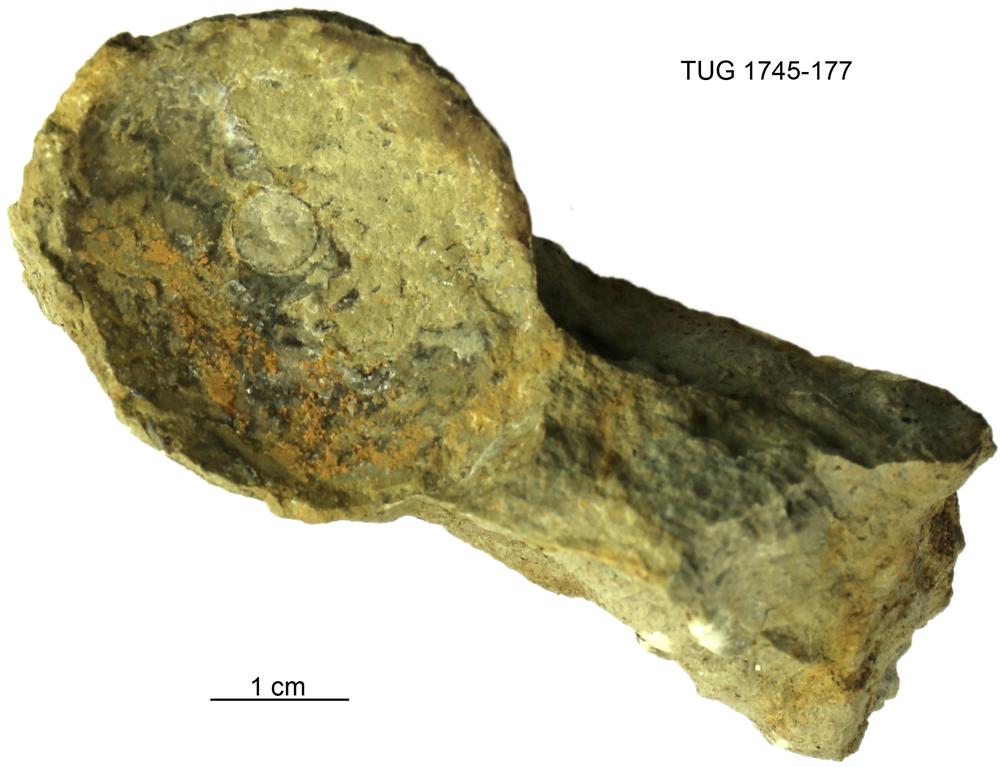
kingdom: Animalia
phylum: Mollusca
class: Cephalopoda
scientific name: Cephalopoda
